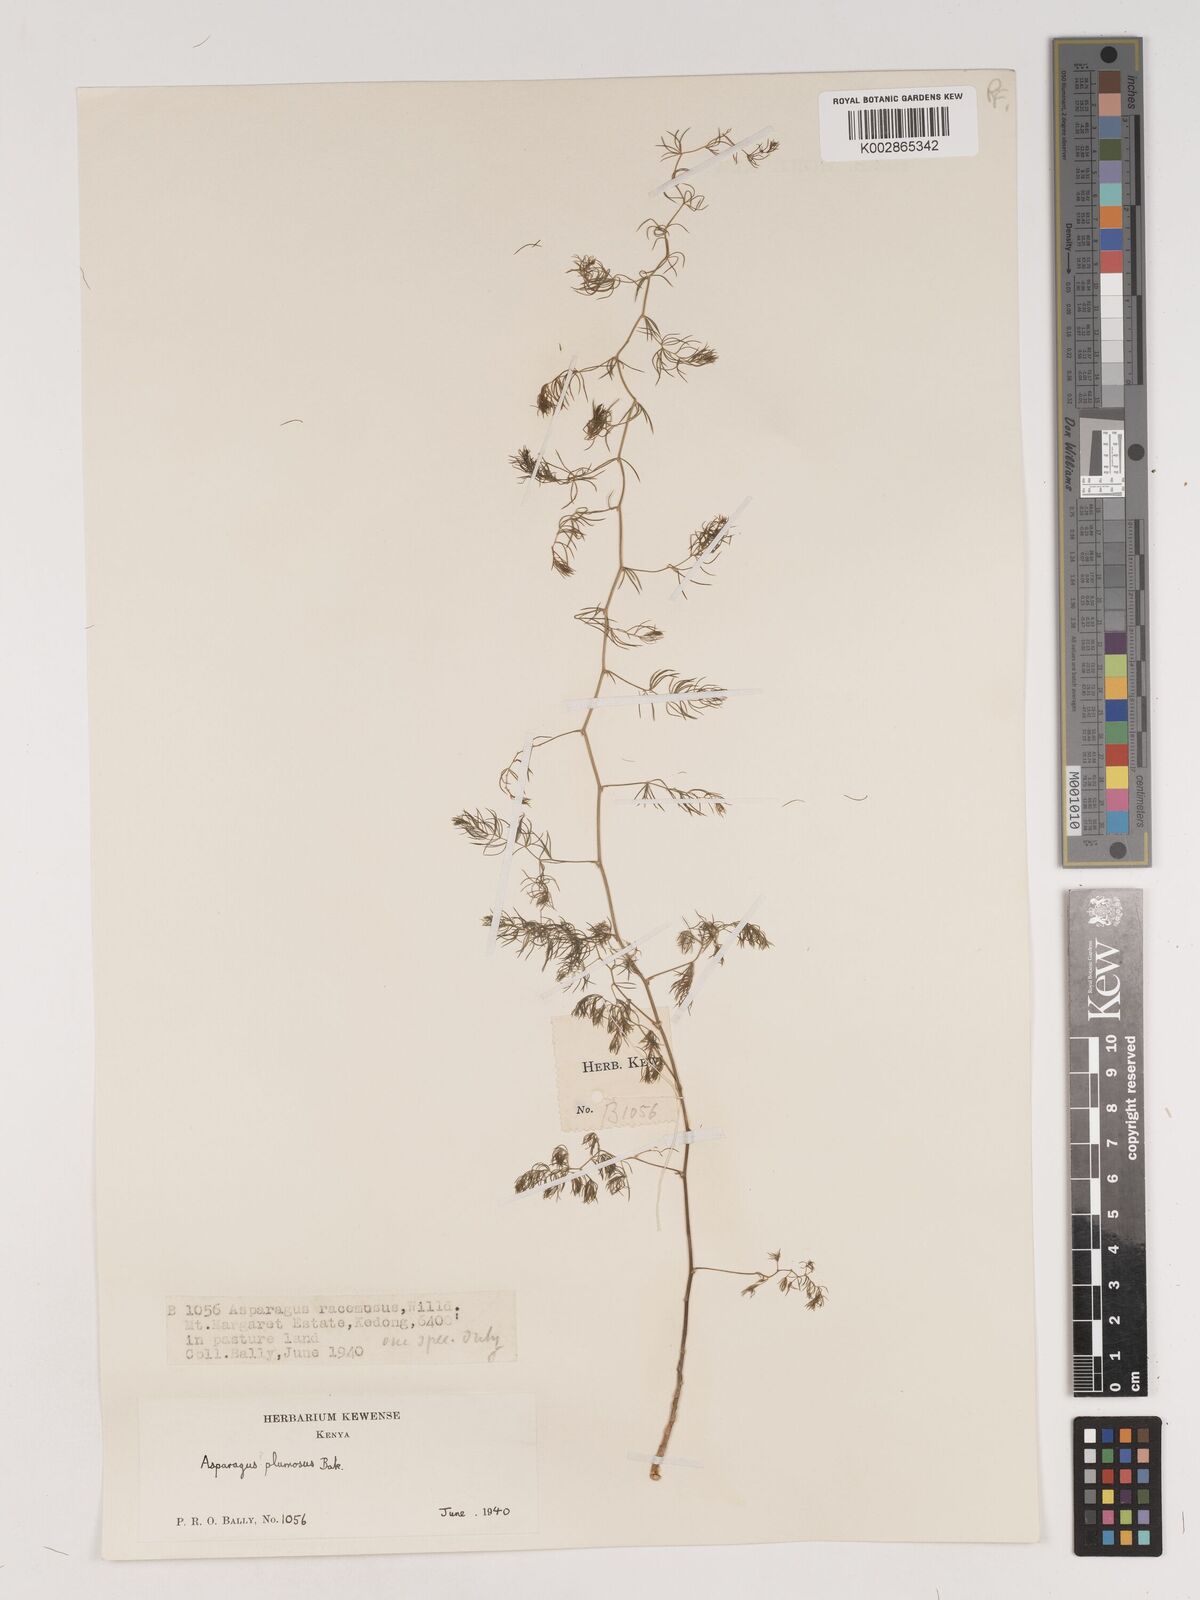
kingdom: Plantae
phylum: Tracheophyta
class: Liliopsida
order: Asparagales
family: Asparagaceae
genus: Asparagus
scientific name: Asparagus
